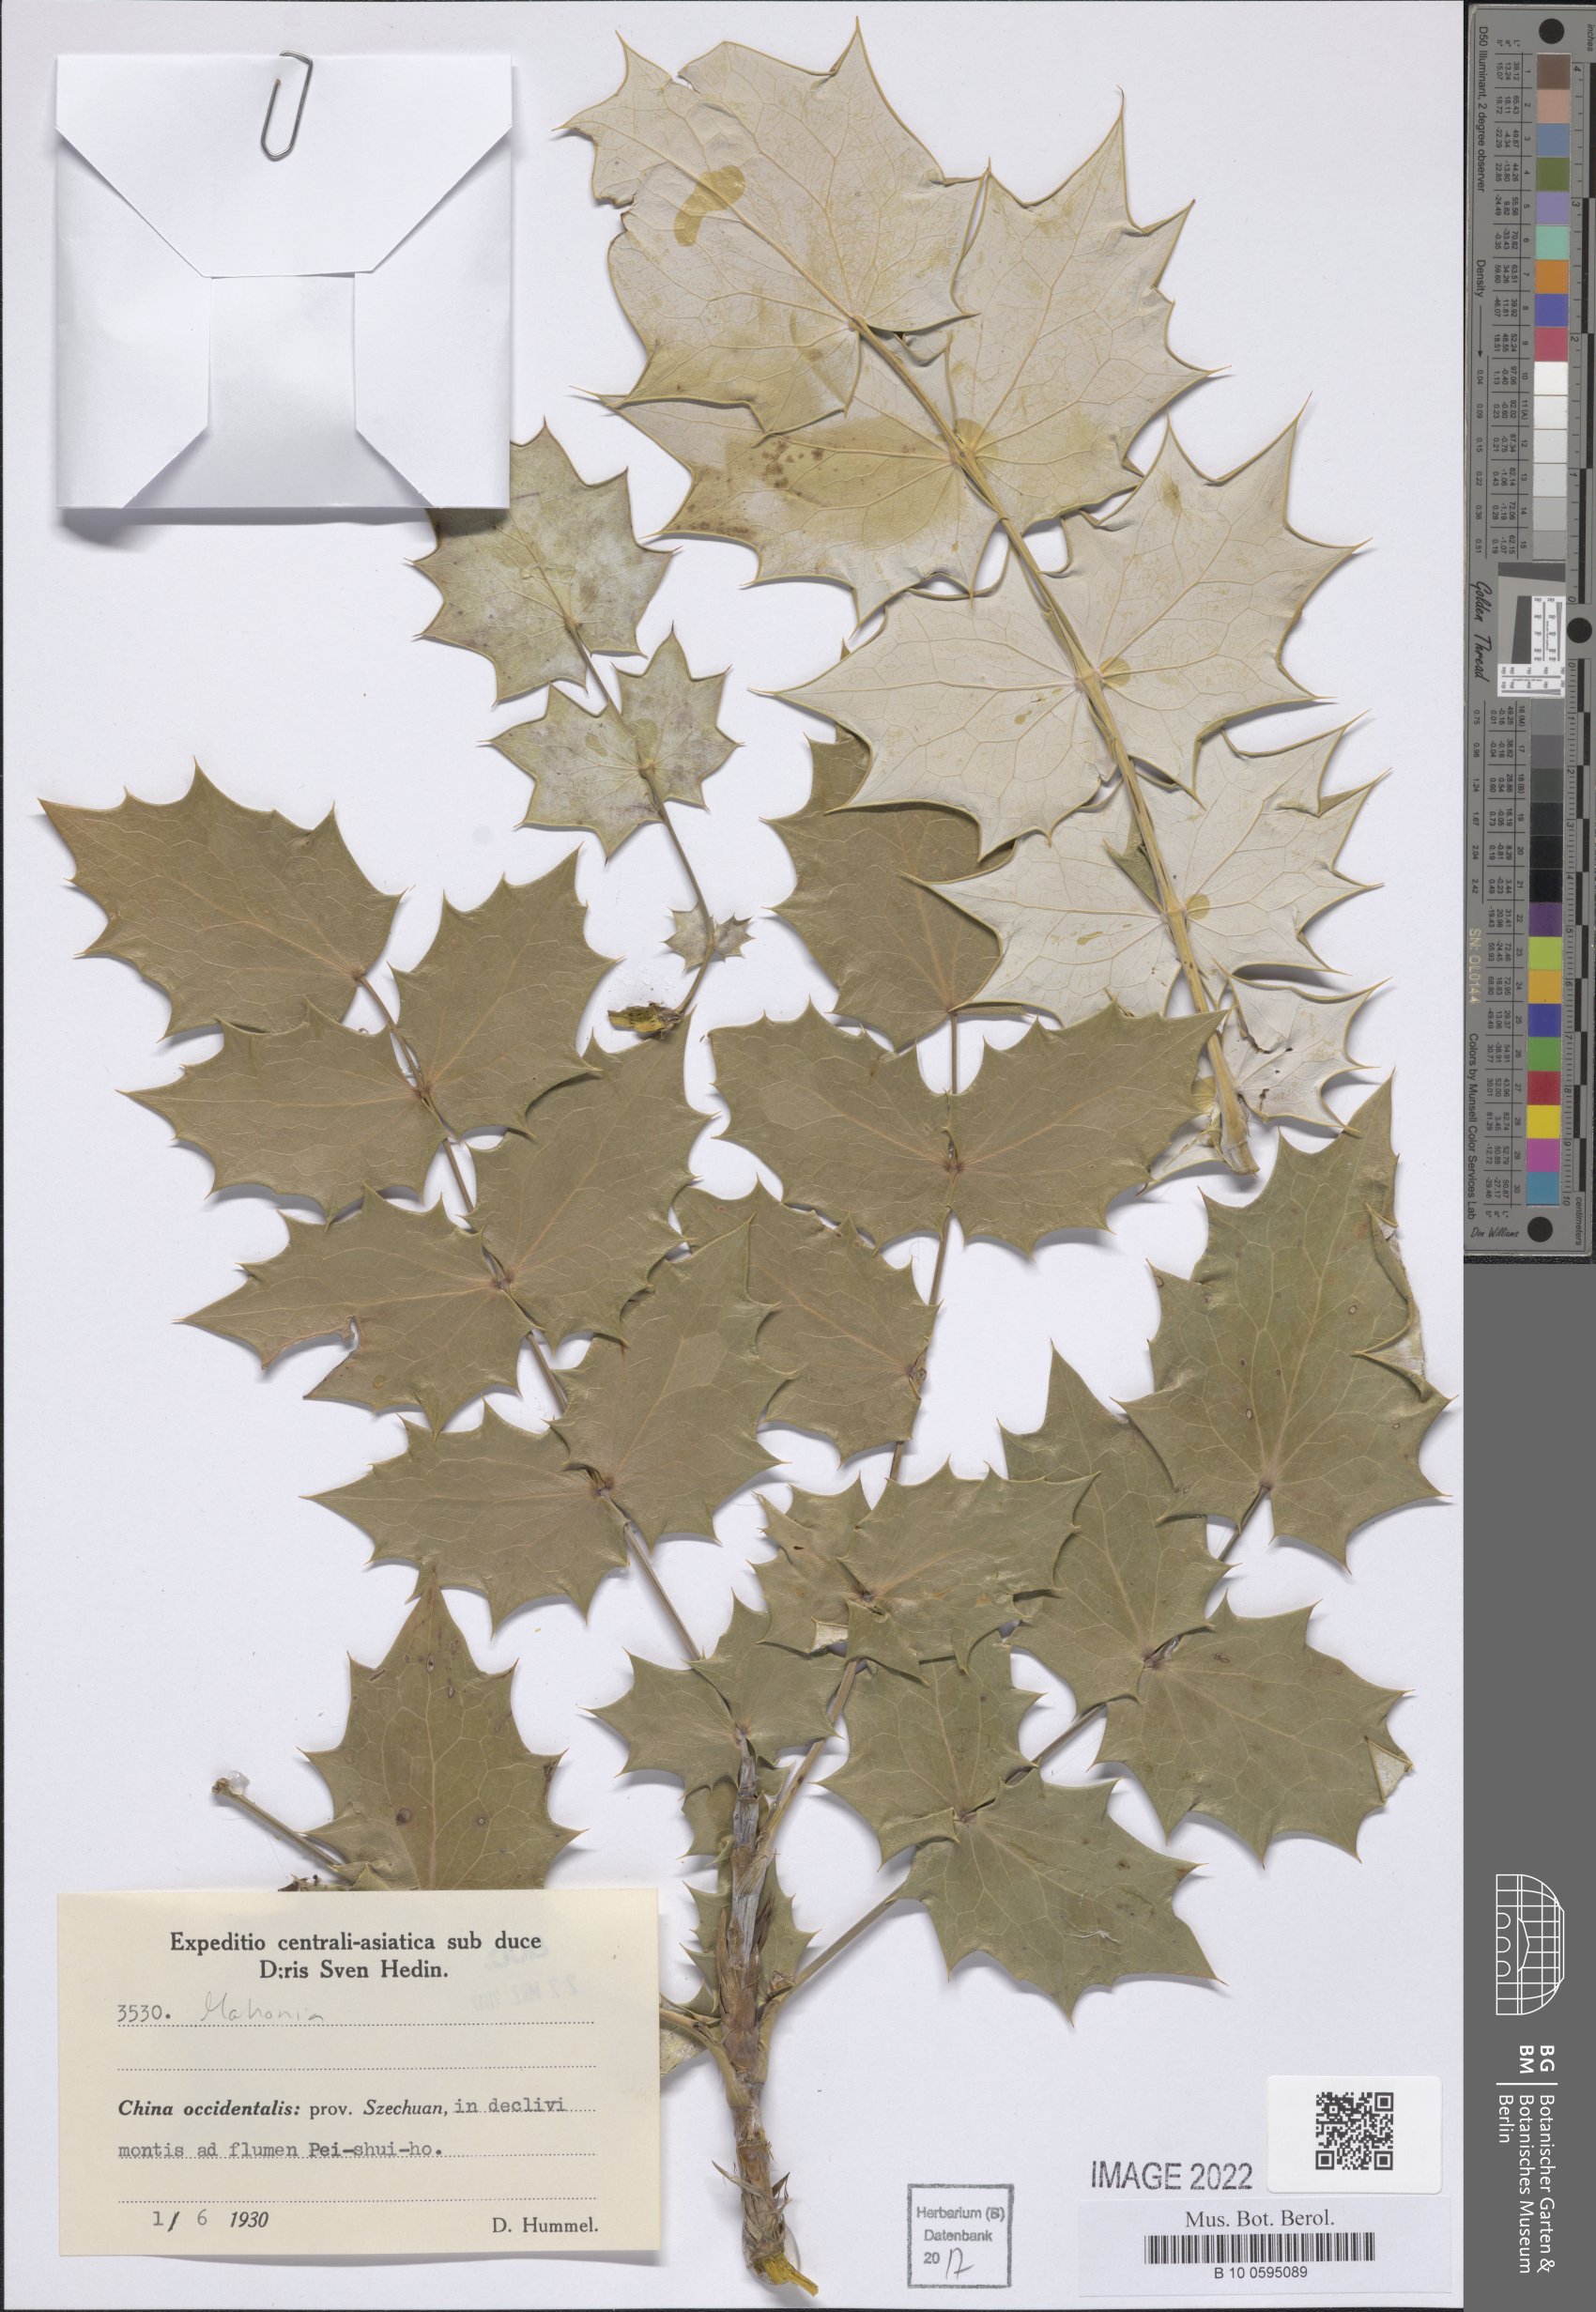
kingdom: Plantae
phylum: Tracheophyta
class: Magnoliopsida
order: Ranunculales
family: Berberidaceae
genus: Mahonia
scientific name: Mahonia
